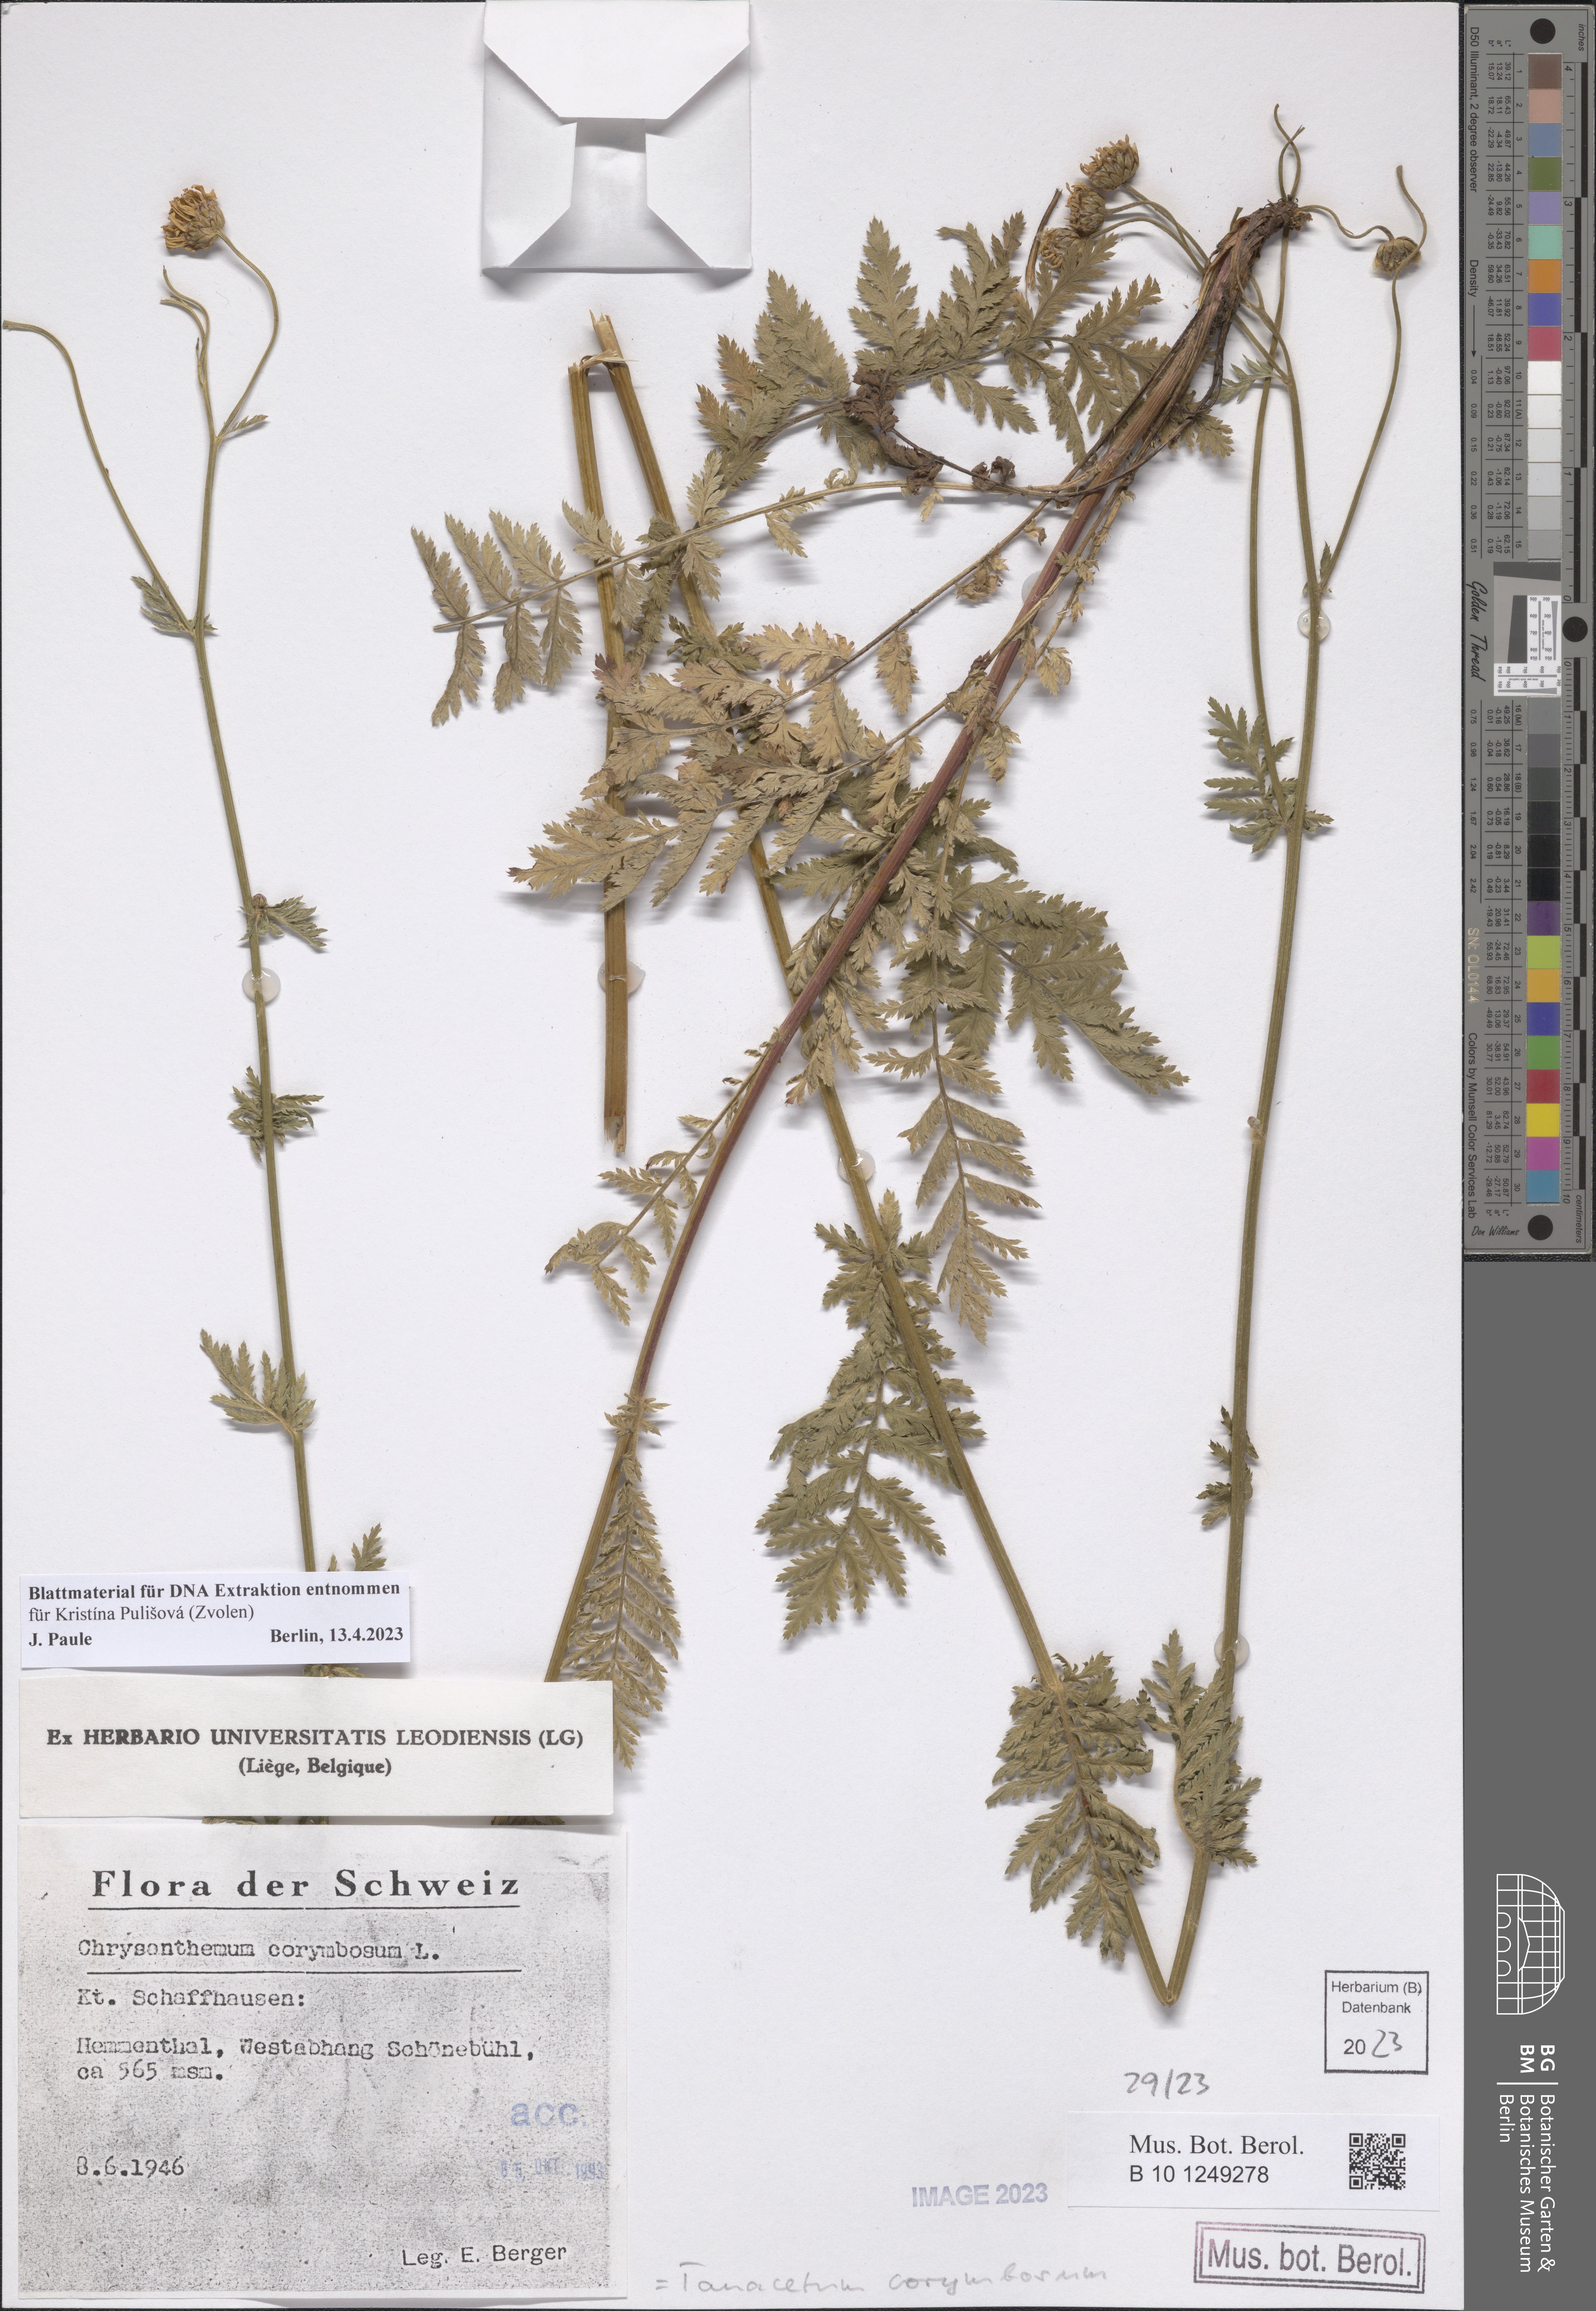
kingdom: Plantae
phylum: Tracheophyta
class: Magnoliopsida
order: Asterales
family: Asteraceae
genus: Tanacetum
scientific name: Tanacetum corymbosum
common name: Scentless feverfew
